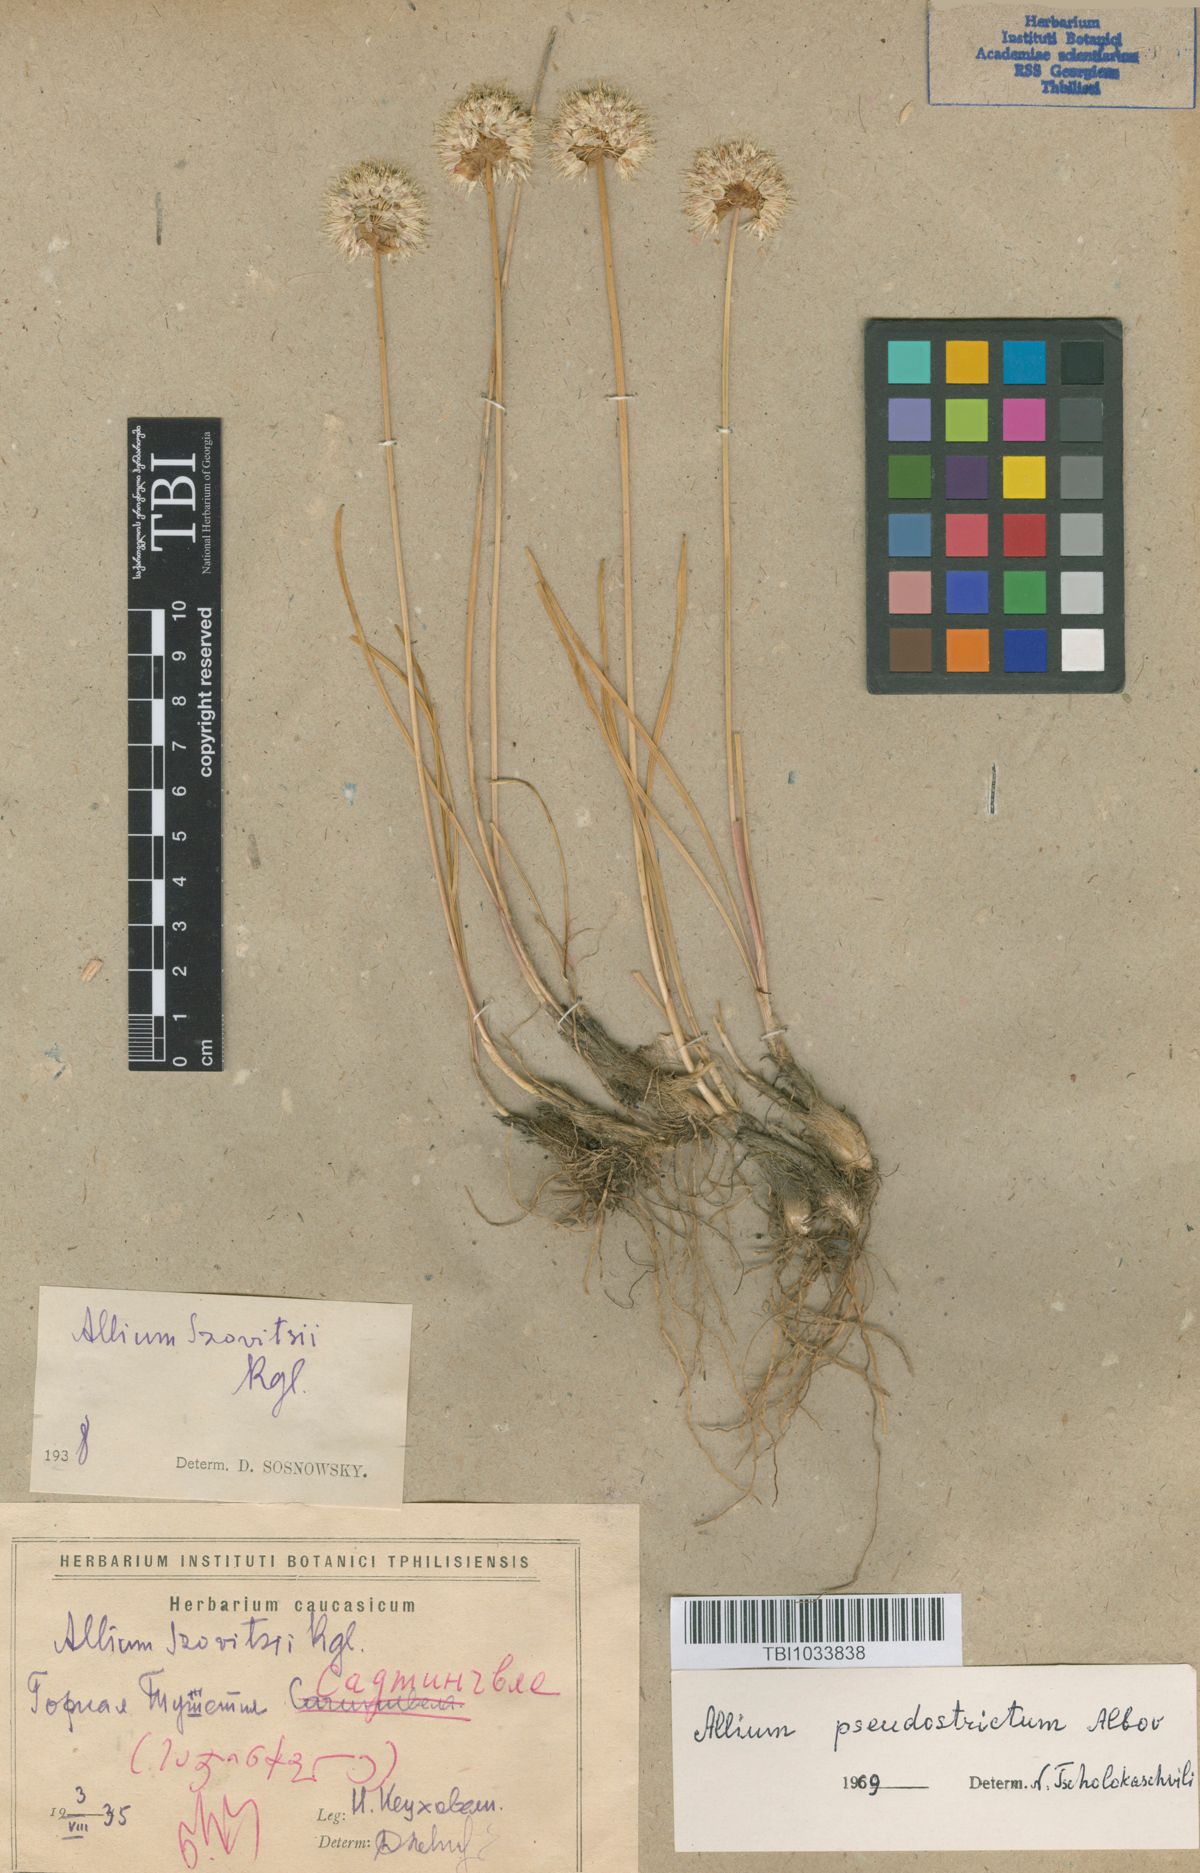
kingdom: Plantae
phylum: Tracheophyta
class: Liliopsida
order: Asparagales
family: Amaryllidaceae
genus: Allium
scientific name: Allium pseudostrictum
